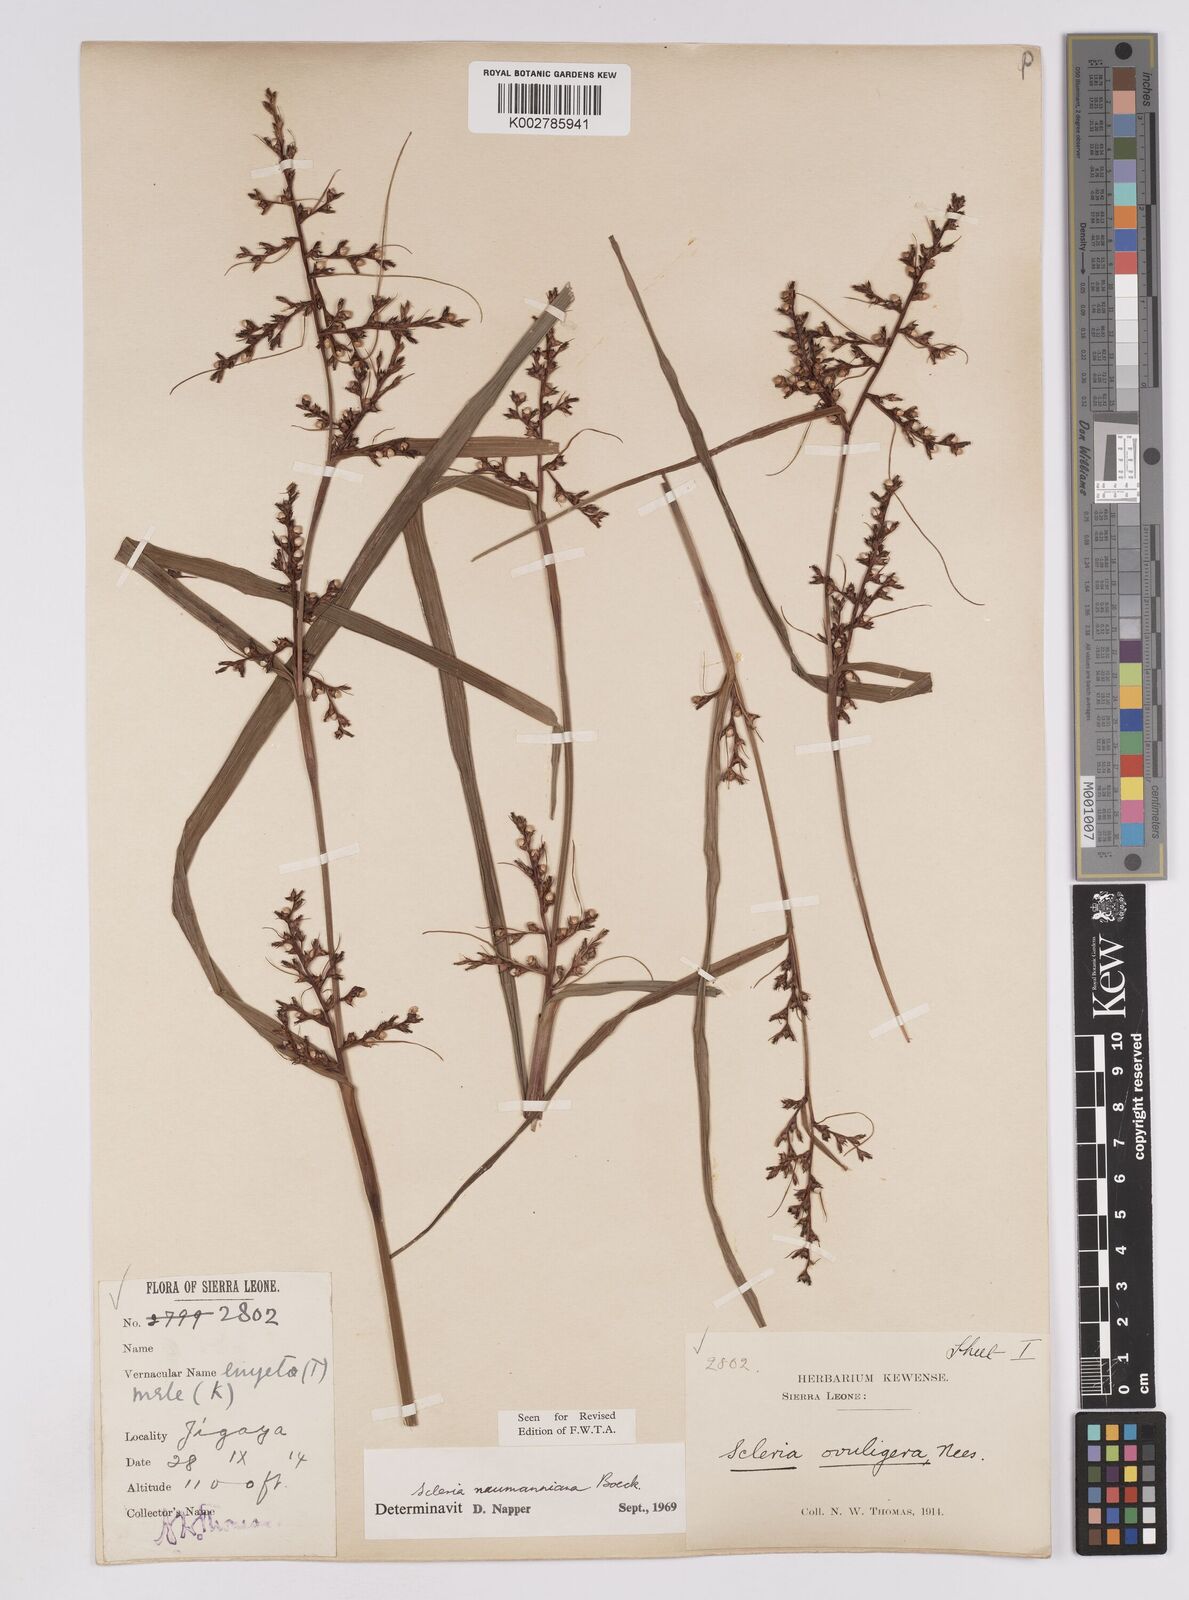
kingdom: Plantae
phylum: Tracheophyta
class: Liliopsida
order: Poales
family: Cyperaceae
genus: Scleria
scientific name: Scleria naumanniana
